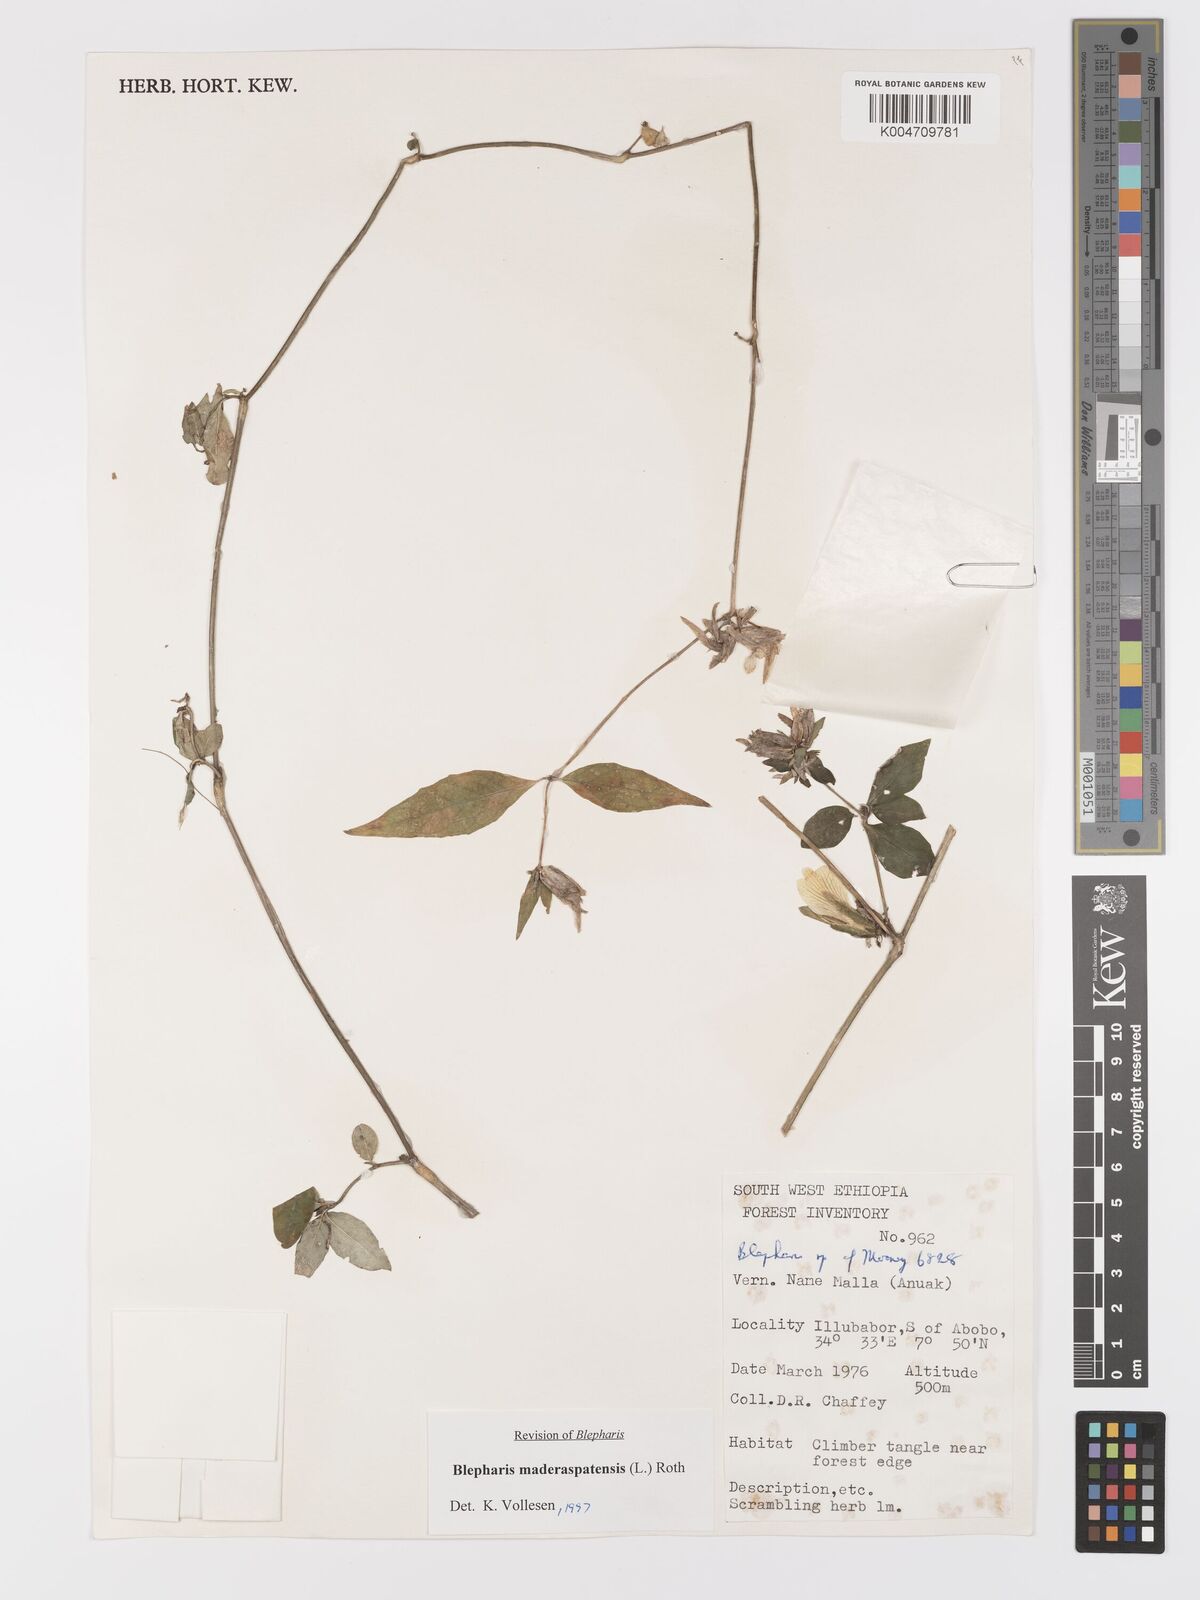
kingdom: Plantae
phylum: Tracheophyta
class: Magnoliopsida
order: Lamiales
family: Acanthaceae
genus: Blepharis
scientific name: Blepharis maderaspatensis
